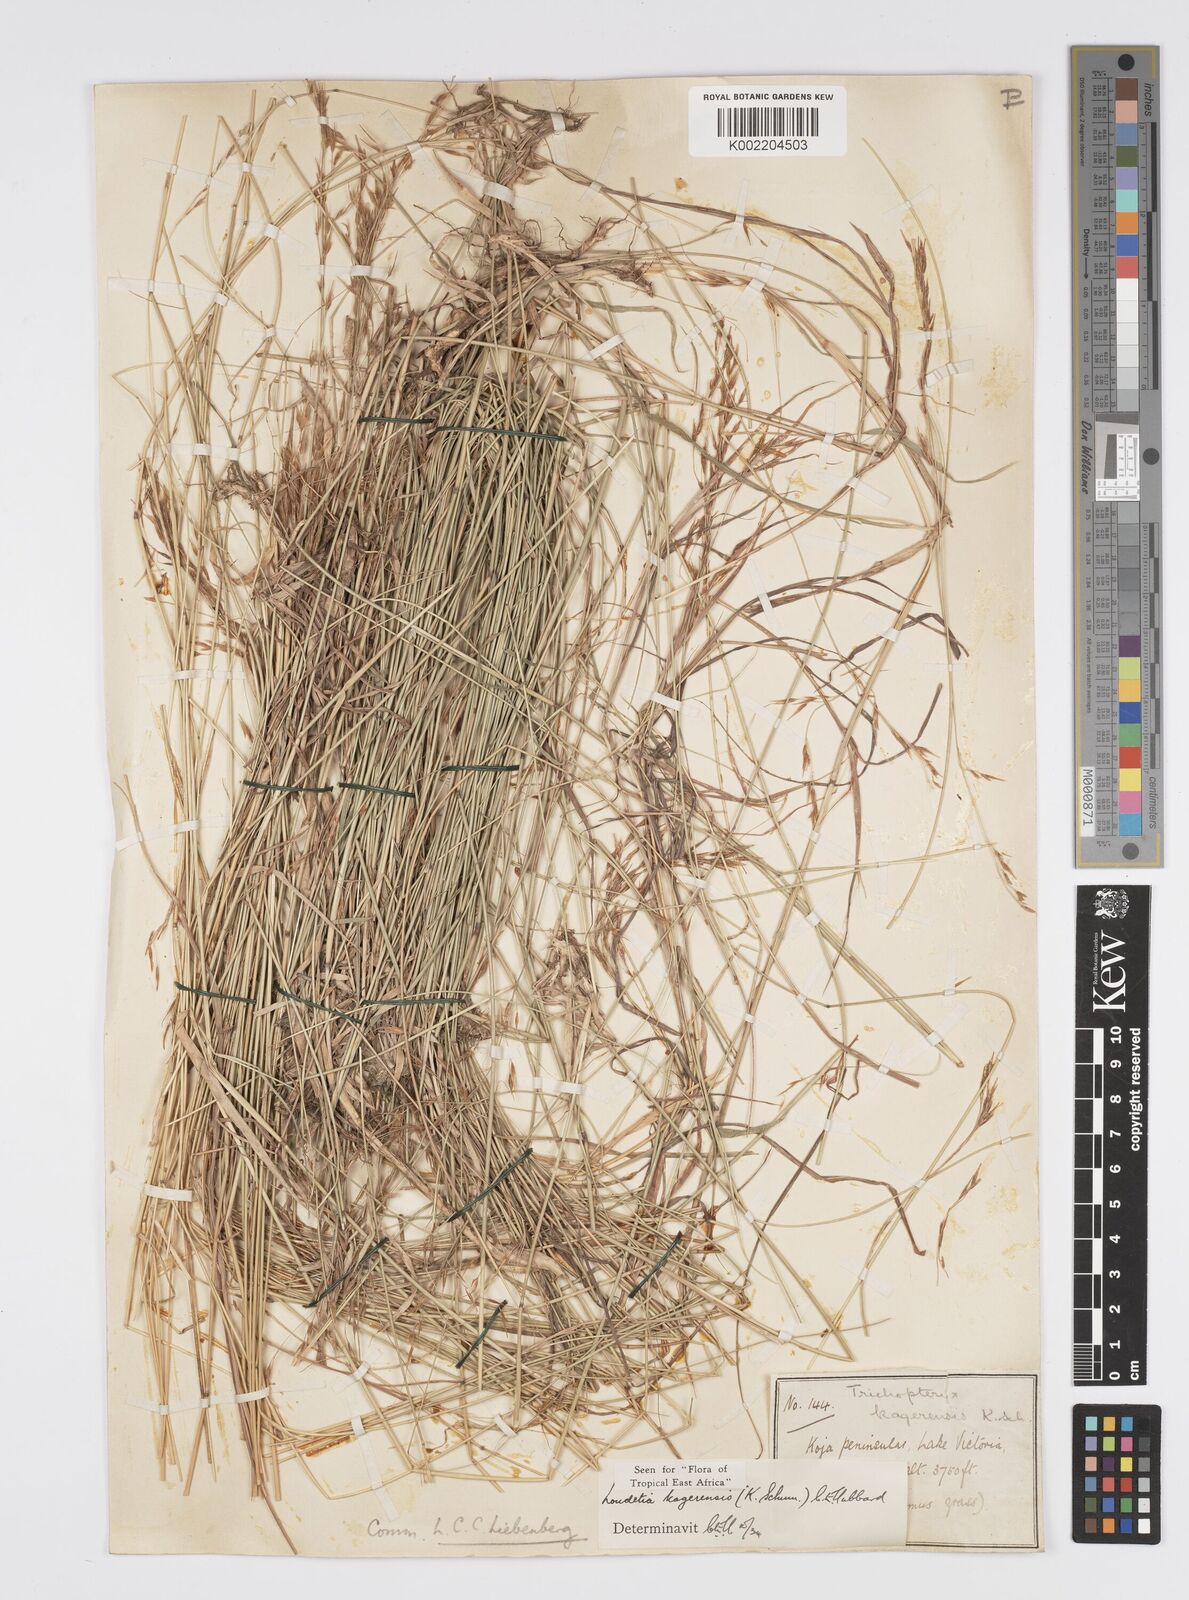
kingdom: Plantae
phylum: Tracheophyta
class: Liliopsida
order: Poales
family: Poaceae
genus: Loudetia
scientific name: Loudetia kagerensis
